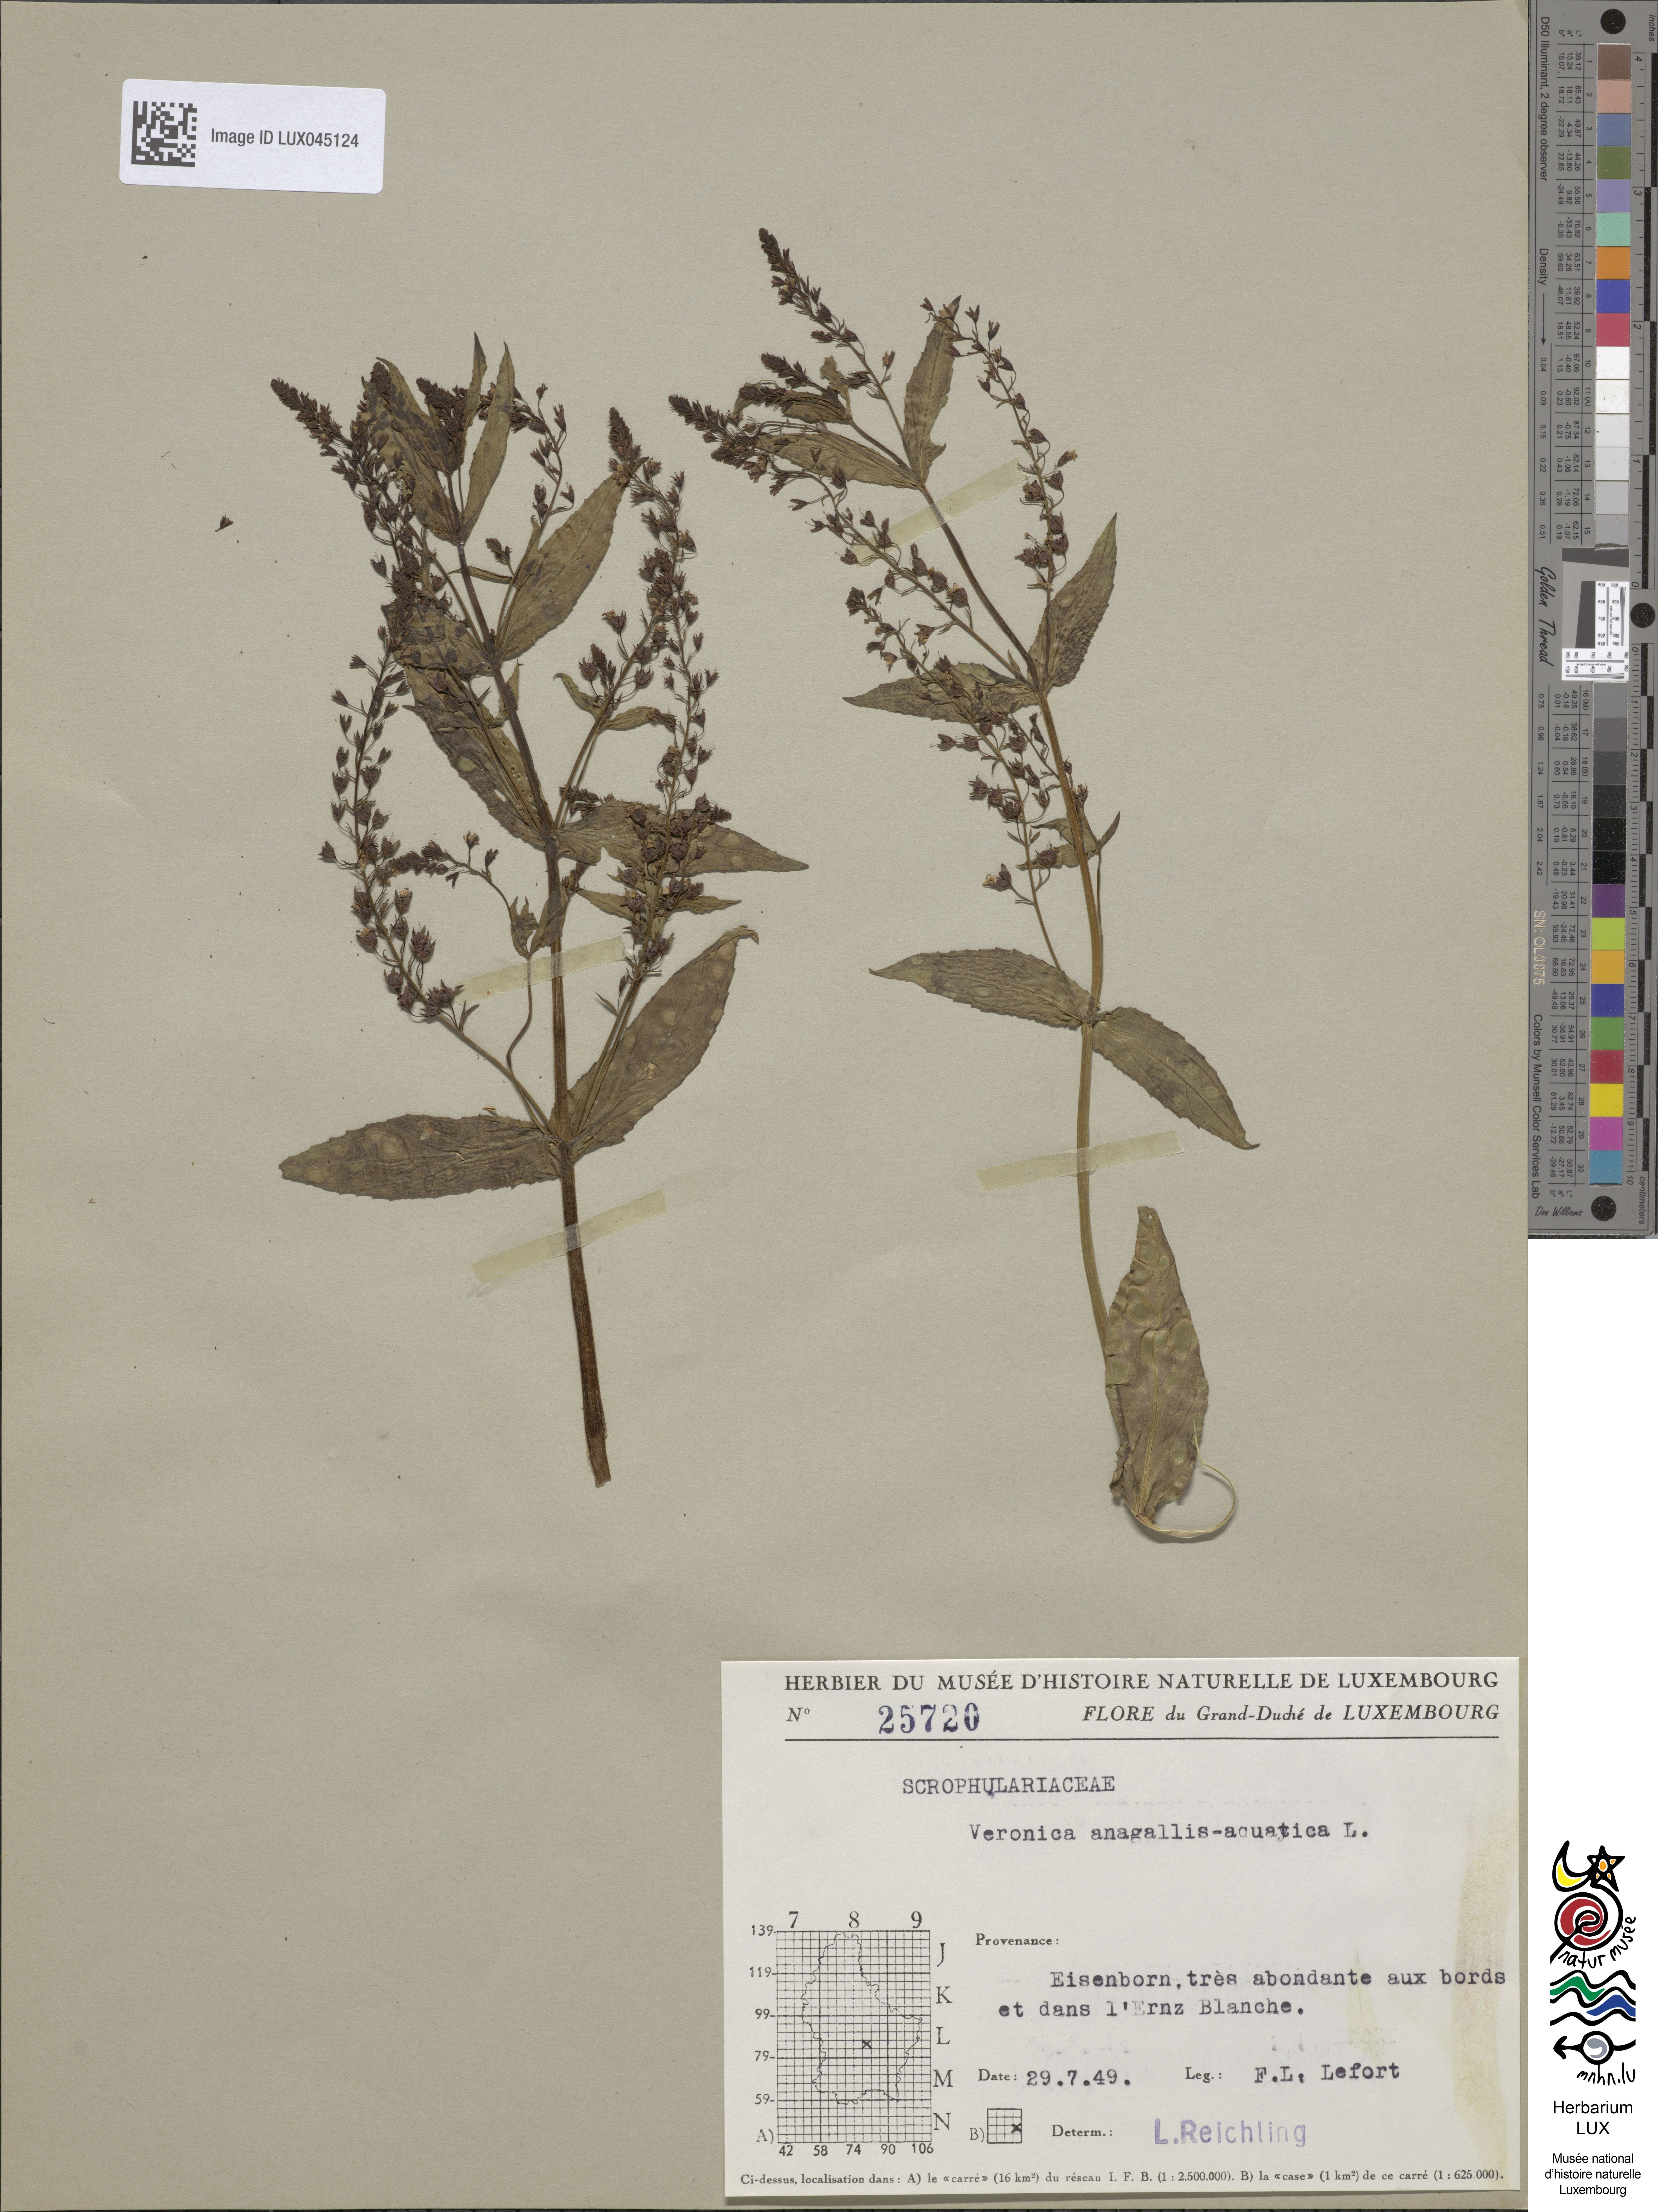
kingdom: Plantae
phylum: Tracheophyta
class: Magnoliopsida
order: Lamiales
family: Plantaginaceae
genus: Veronica
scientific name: Veronica anagallis-aquatica
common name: Water speedwell
